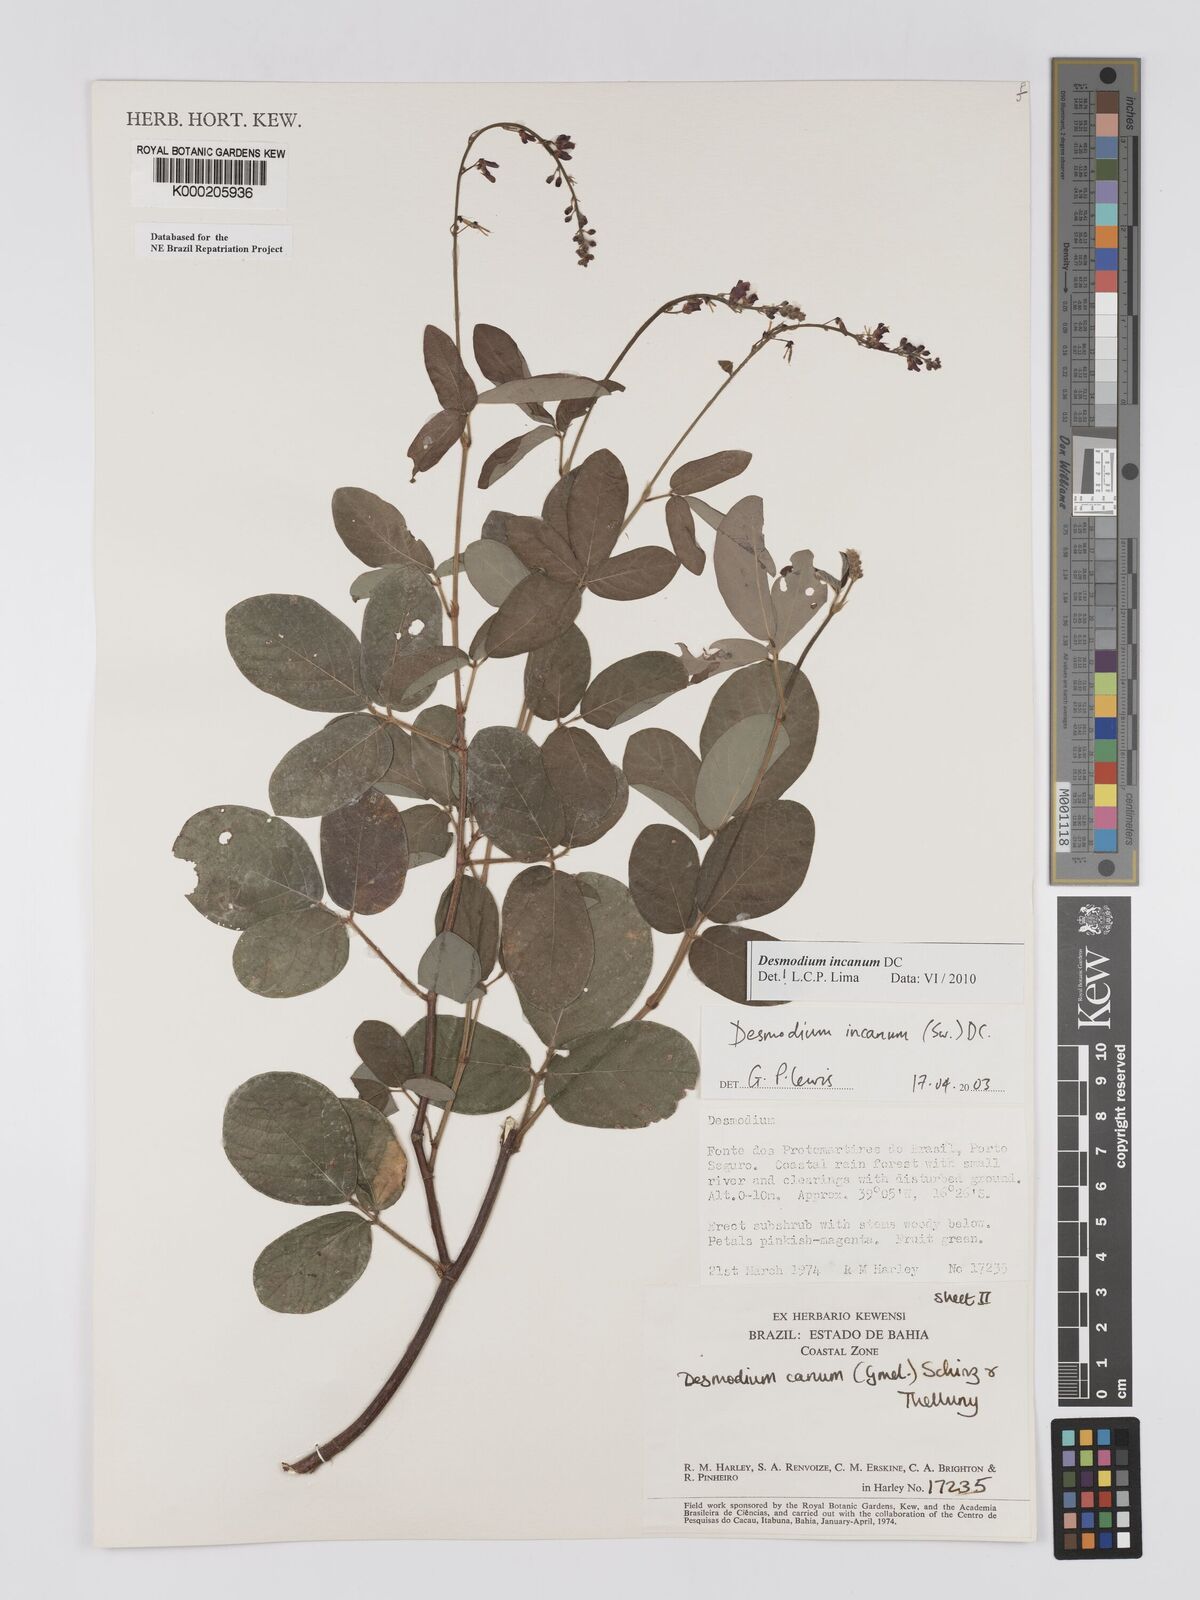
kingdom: Plantae
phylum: Tracheophyta
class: Magnoliopsida
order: Fabales
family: Fabaceae
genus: Desmodium
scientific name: Desmodium incanum
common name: Tickclover
